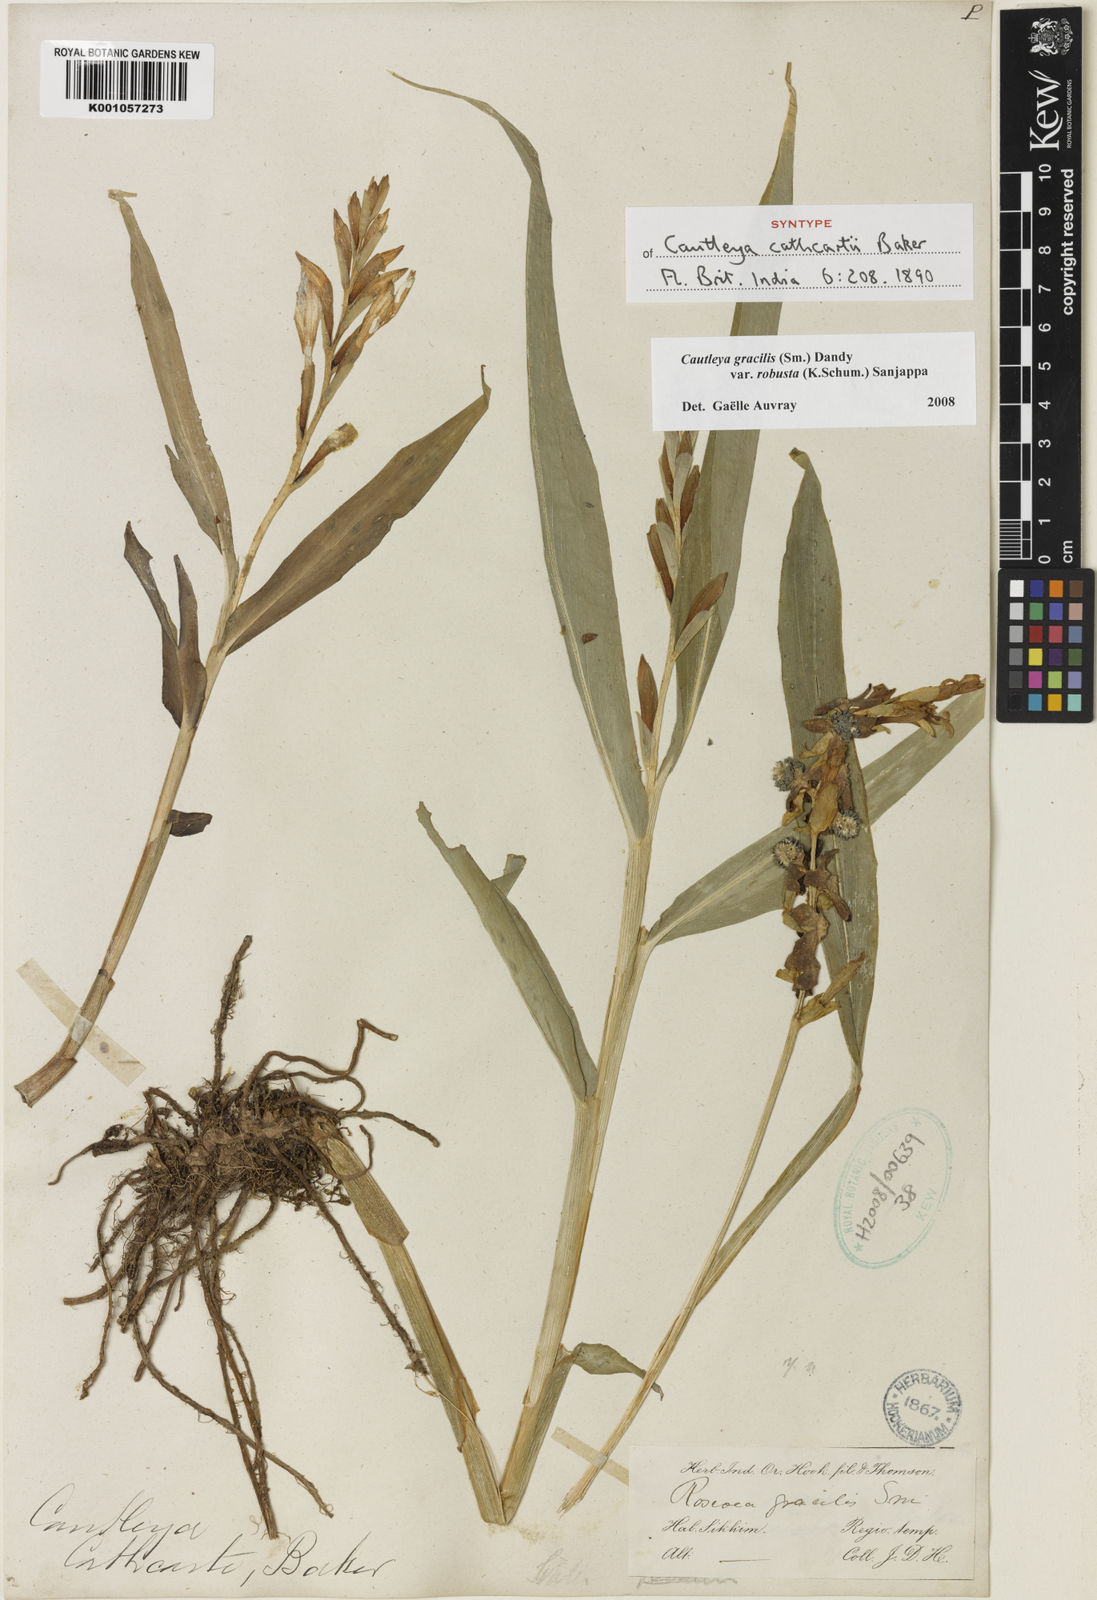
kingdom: Plantae
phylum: Tracheophyta
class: Liliopsida
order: Zingiberales
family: Zingiberaceae
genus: Cautleya
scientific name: Cautleya gracilis
